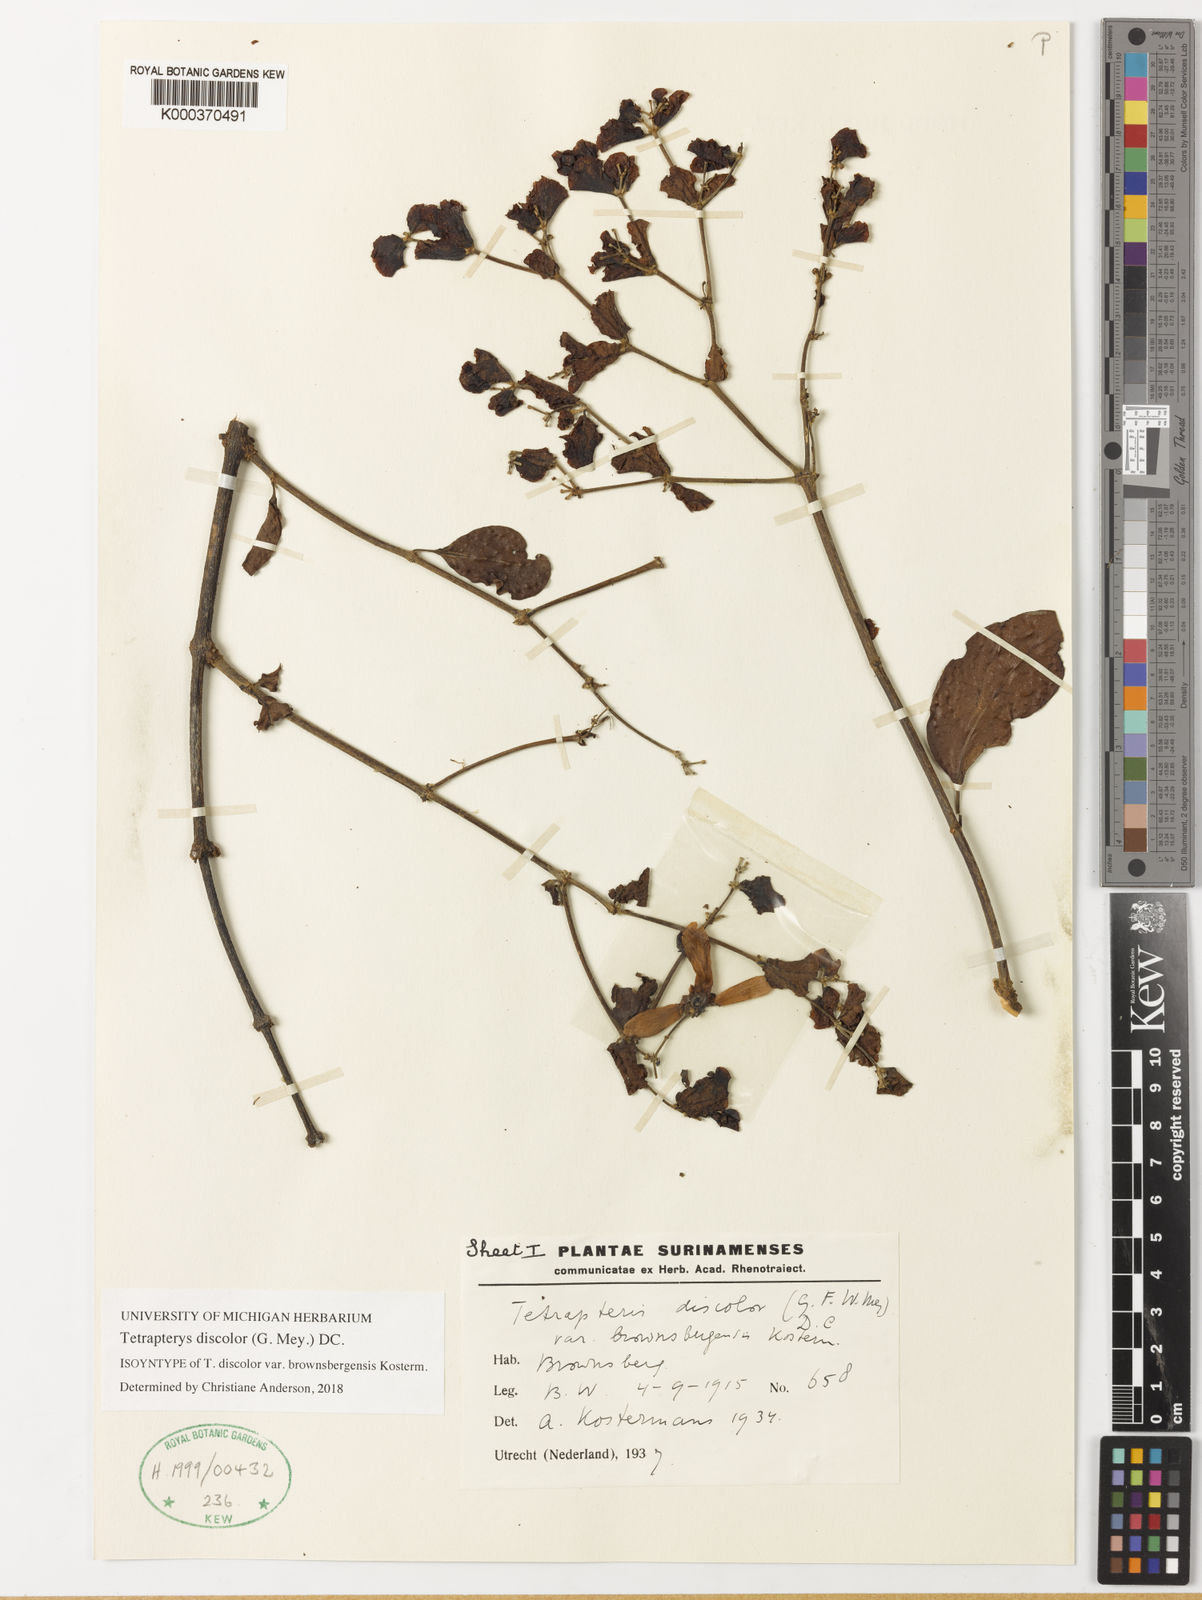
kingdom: Plantae
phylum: Tracheophyta
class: Magnoliopsida
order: Malpighiales
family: Malpighiaceae
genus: Tetrapterys
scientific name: Tetrapterys discolor
